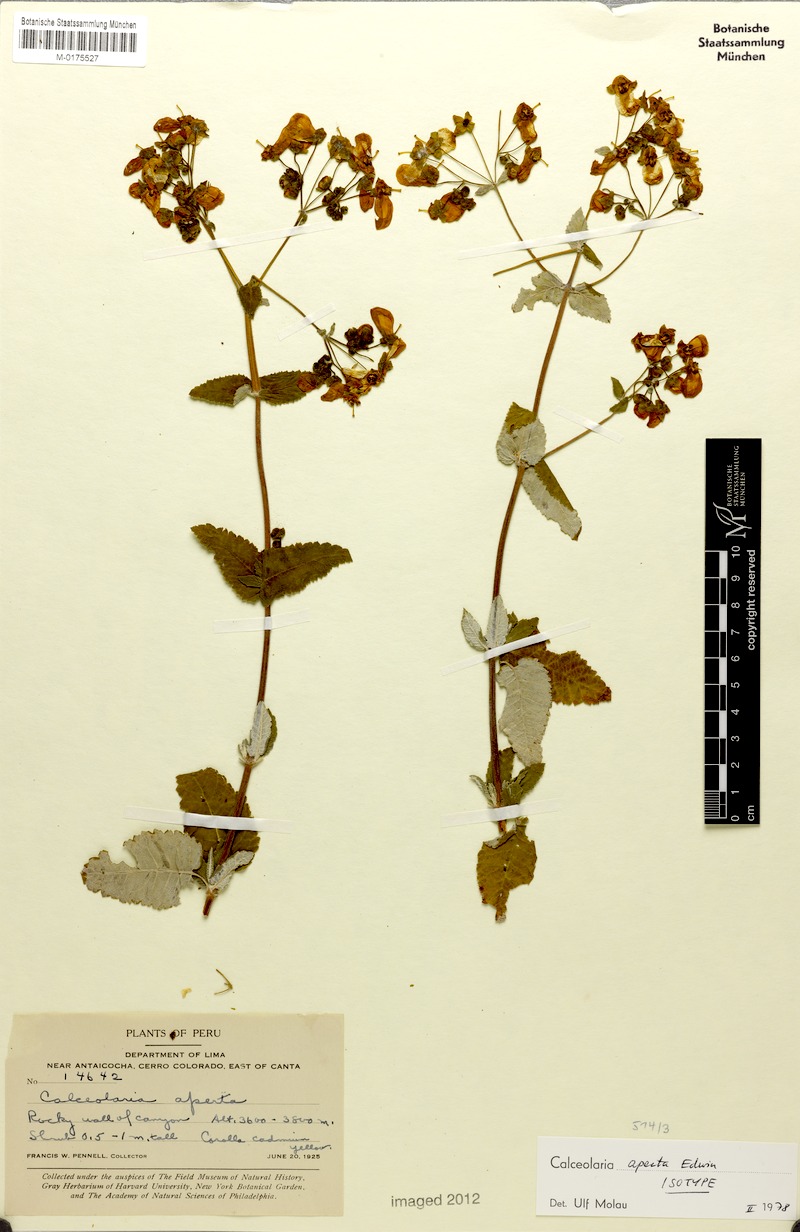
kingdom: Plantae
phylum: Tracheophyta
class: Magnoliopsida
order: Lamiales
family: Calceolariaceae
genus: Calceolaria
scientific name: Calceolaria aperta
